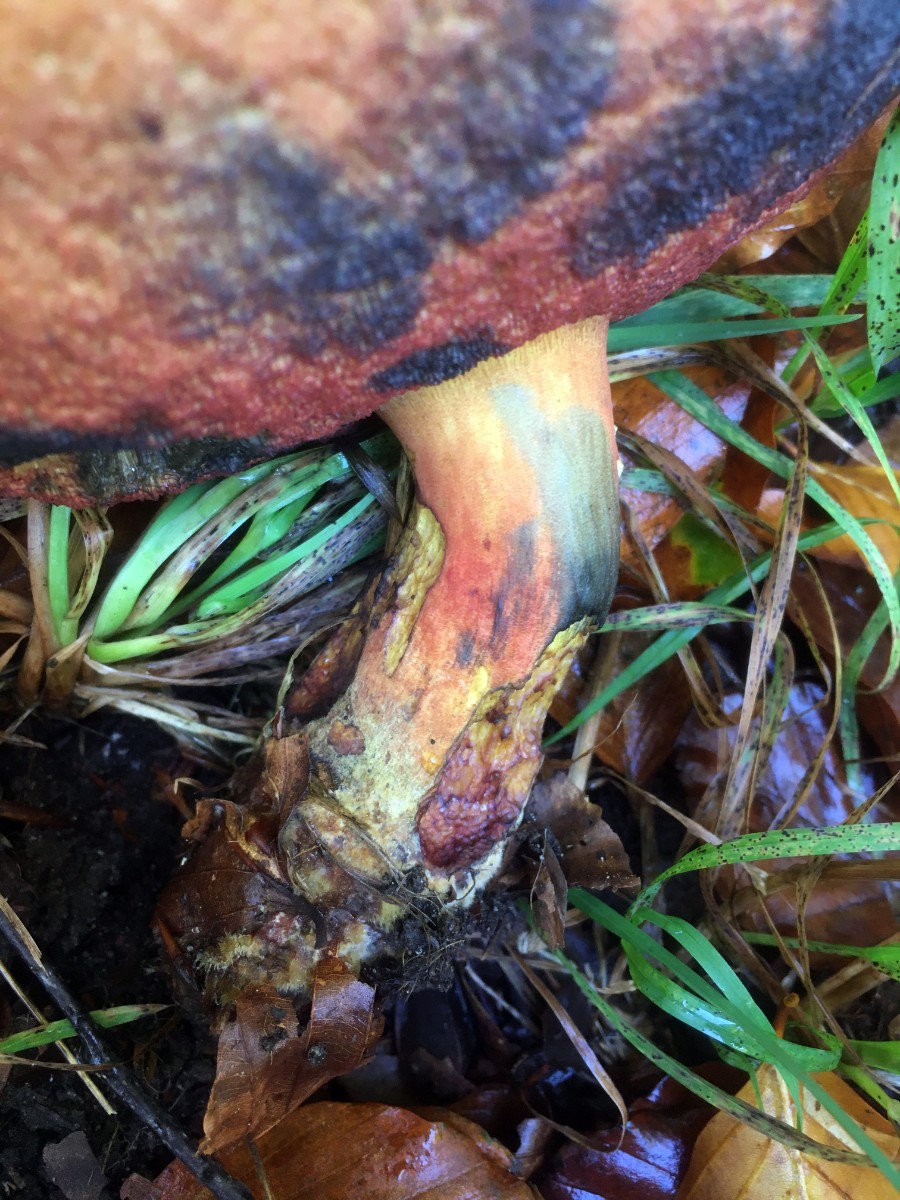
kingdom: Fungi
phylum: Basidiomycota
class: Agaricomycetes
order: Boletales
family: Boletaceae
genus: Neoboletus
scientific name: Neoboletus erythropus
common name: punktstokket indigorørhat
